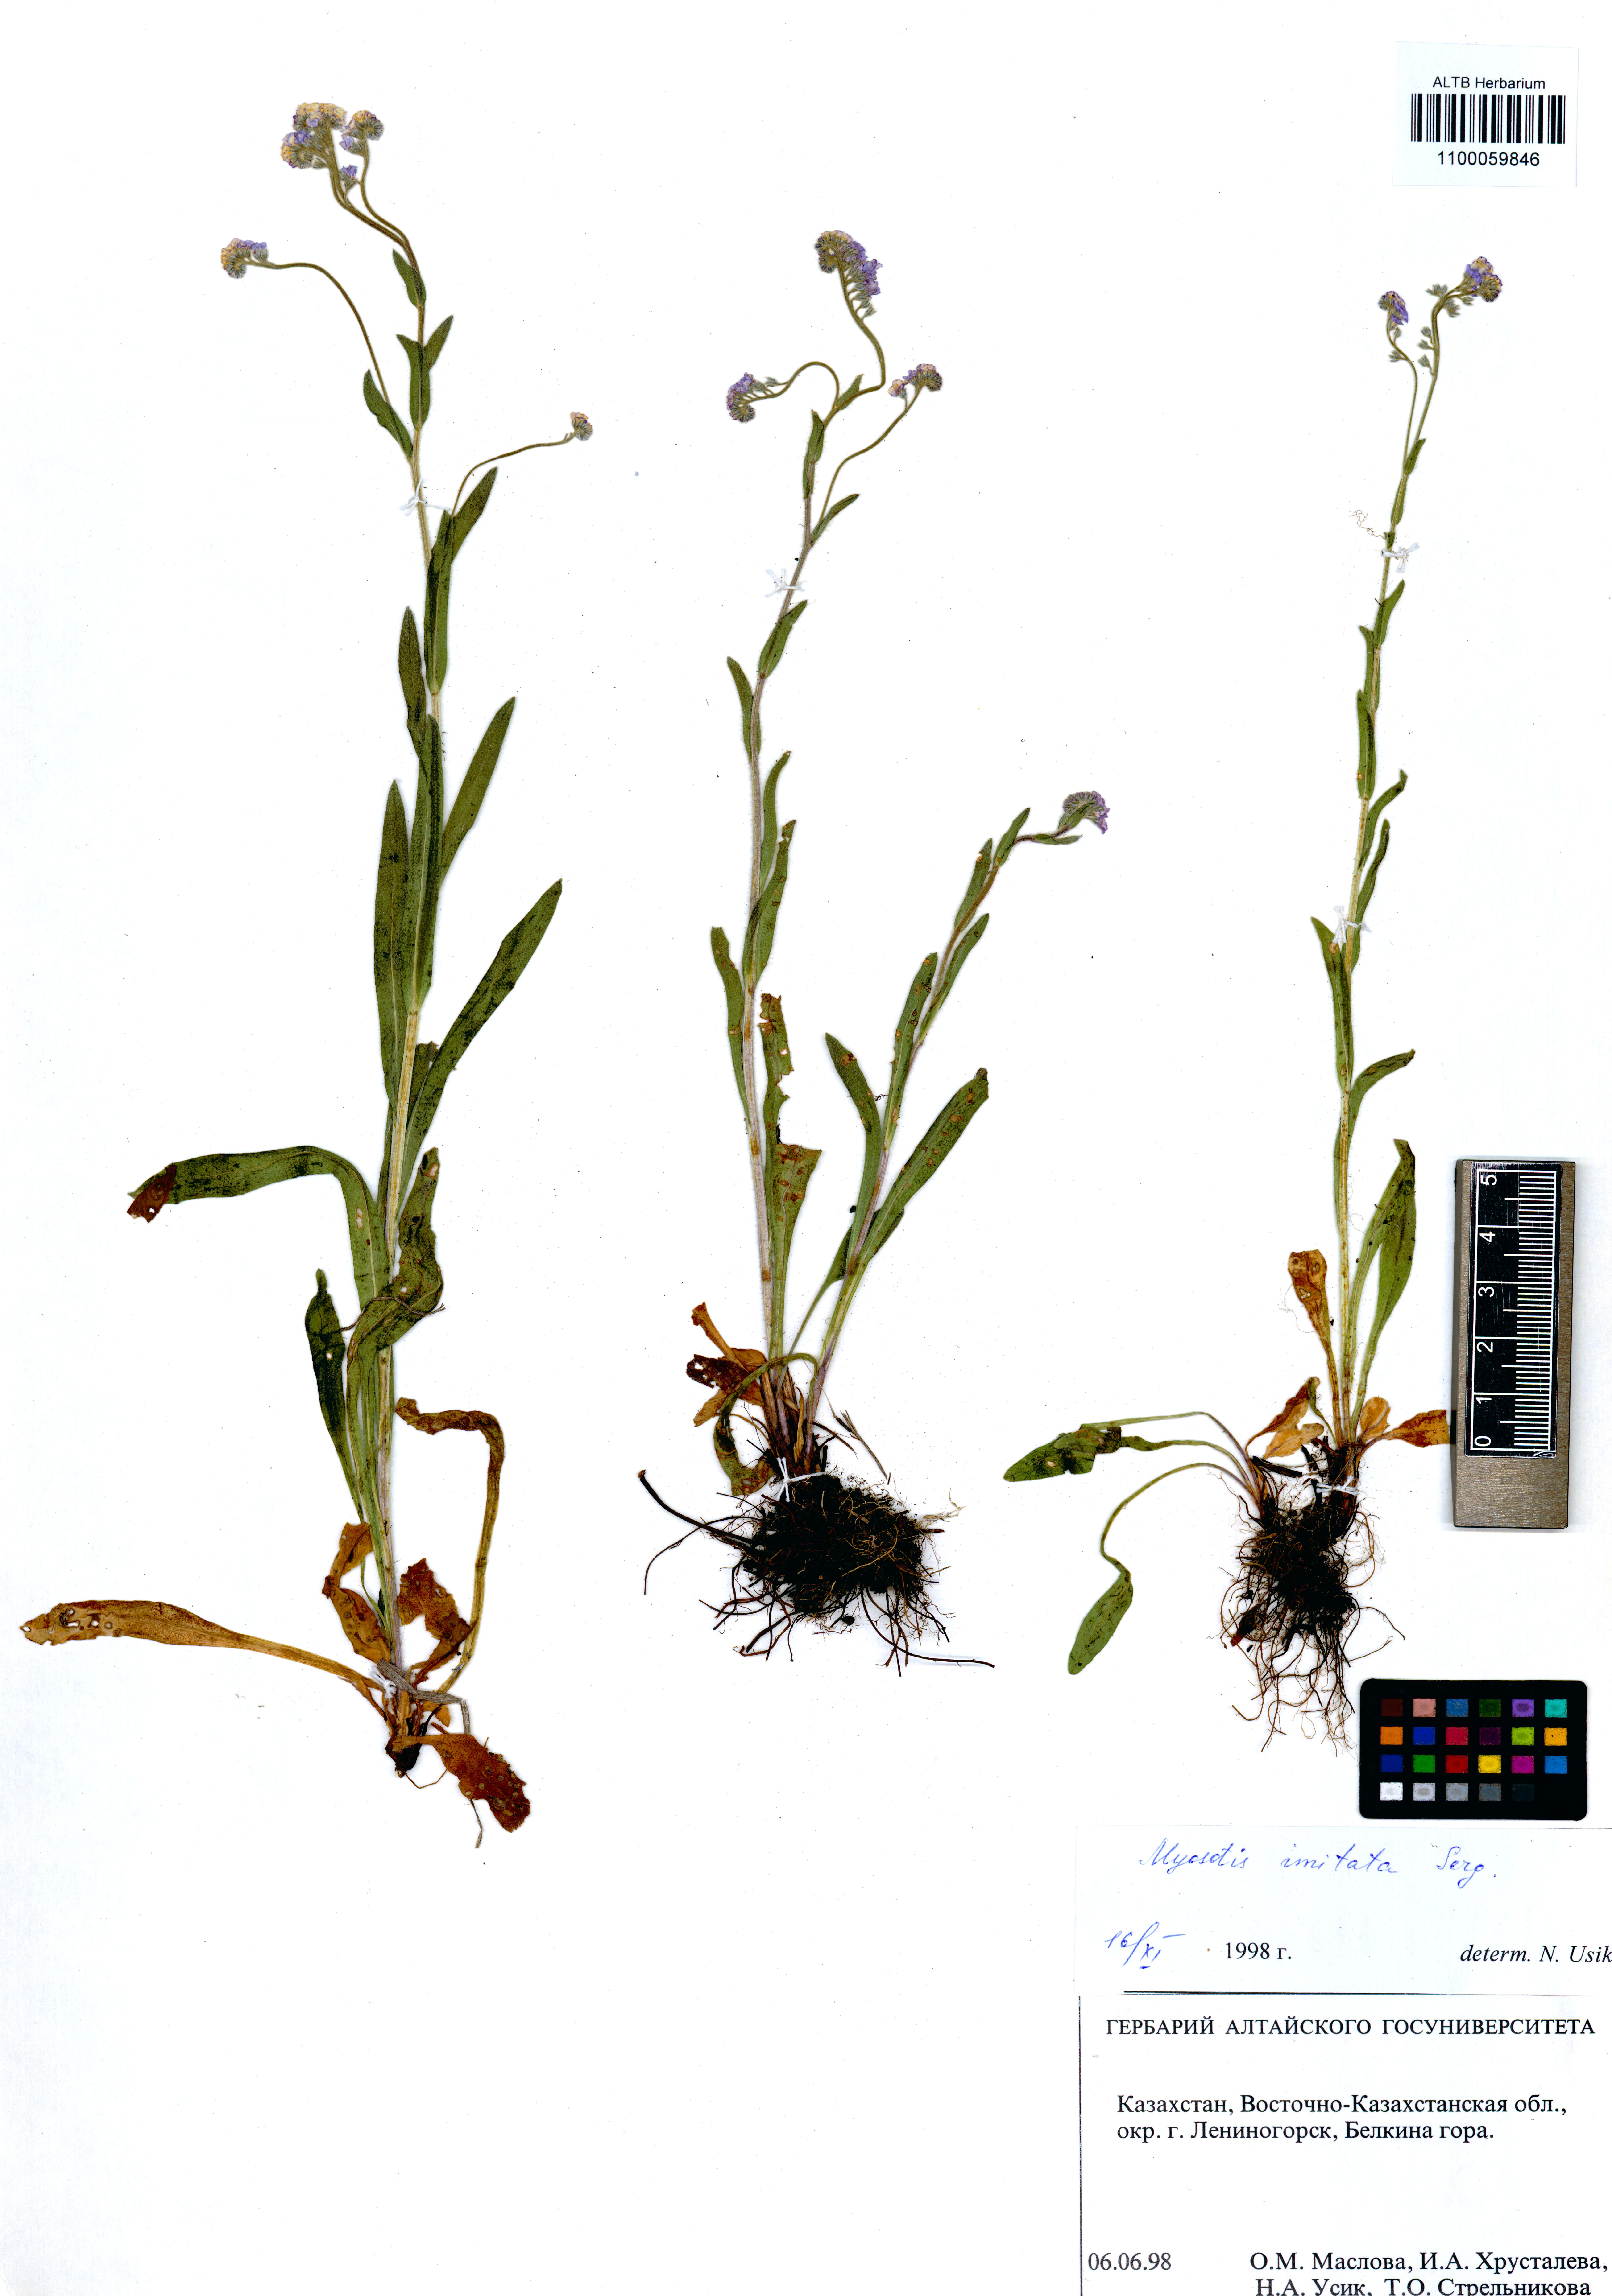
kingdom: Plantae
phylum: Tracheophyta
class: Magnoliopsida
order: Boraginales
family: Boraginaceae
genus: Myosotis
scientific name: Myosotis imitata
